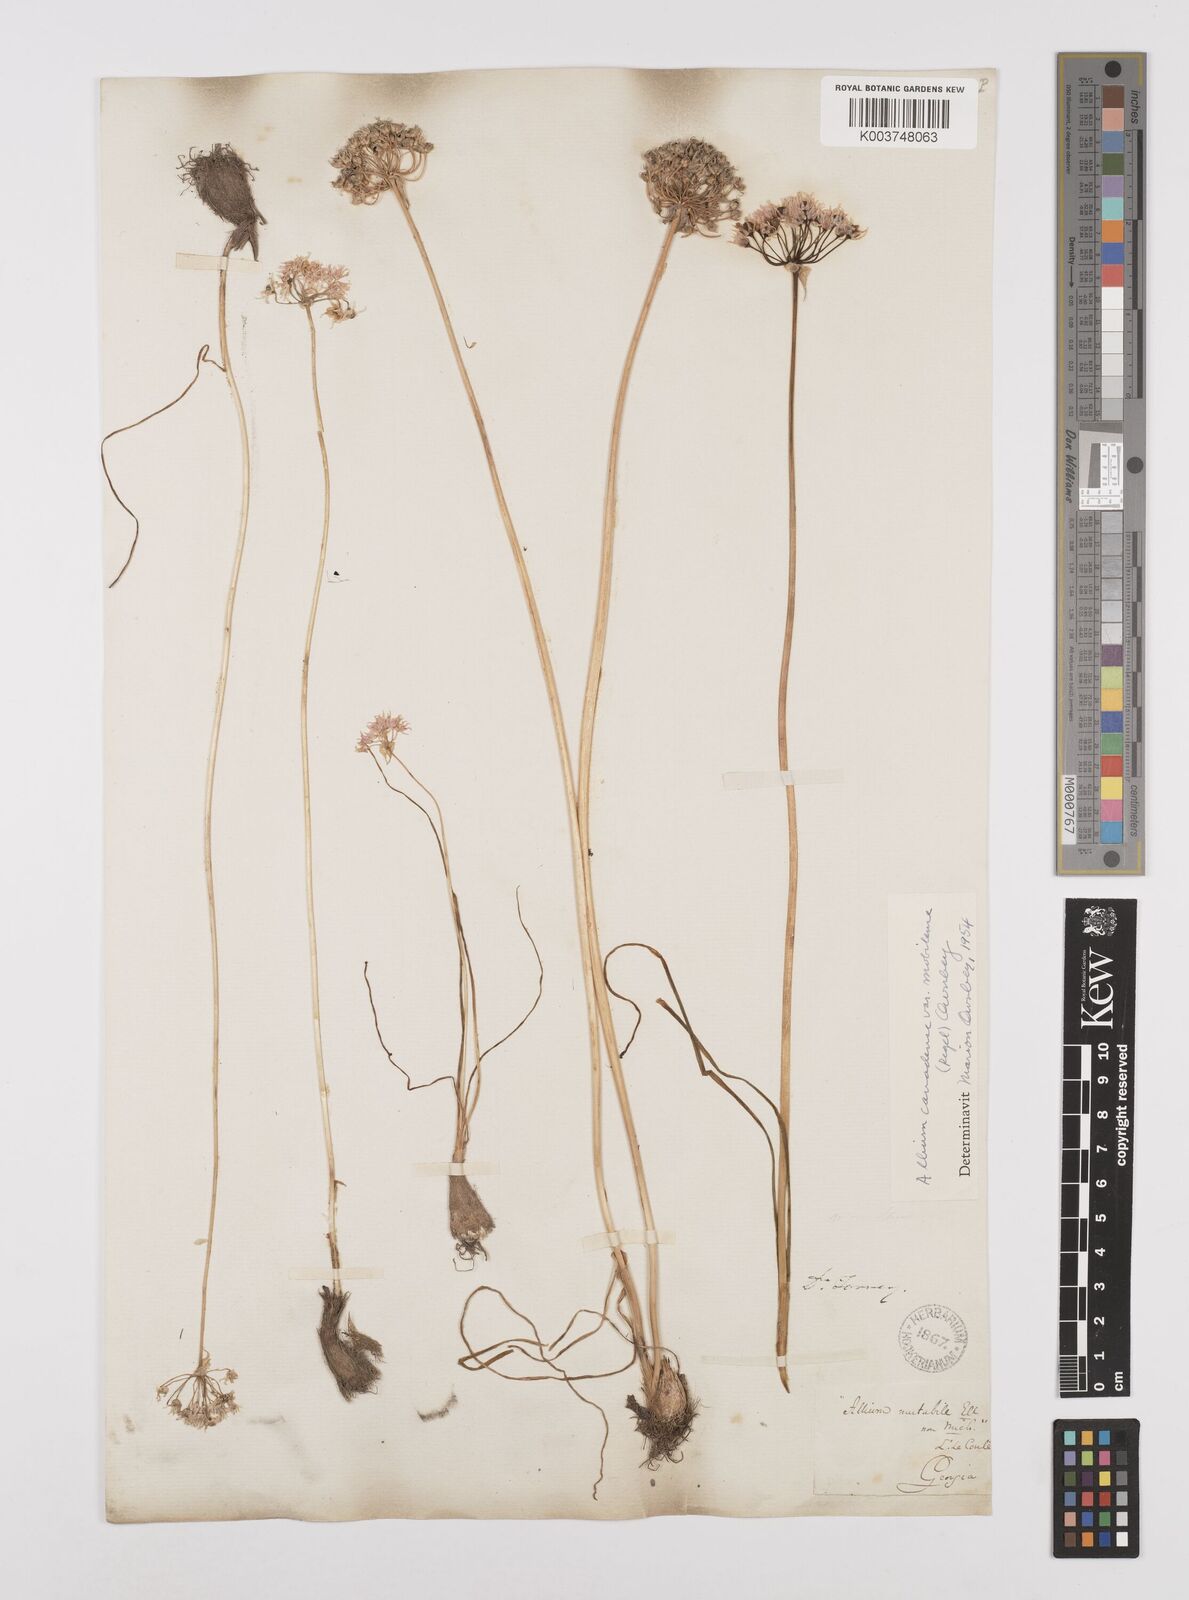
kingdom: Plantae
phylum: Tracheophyta
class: Liliopsida
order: Asparagales
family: Amaryllidaceae
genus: Allium
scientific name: Allium canadense
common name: Meadow garlic
